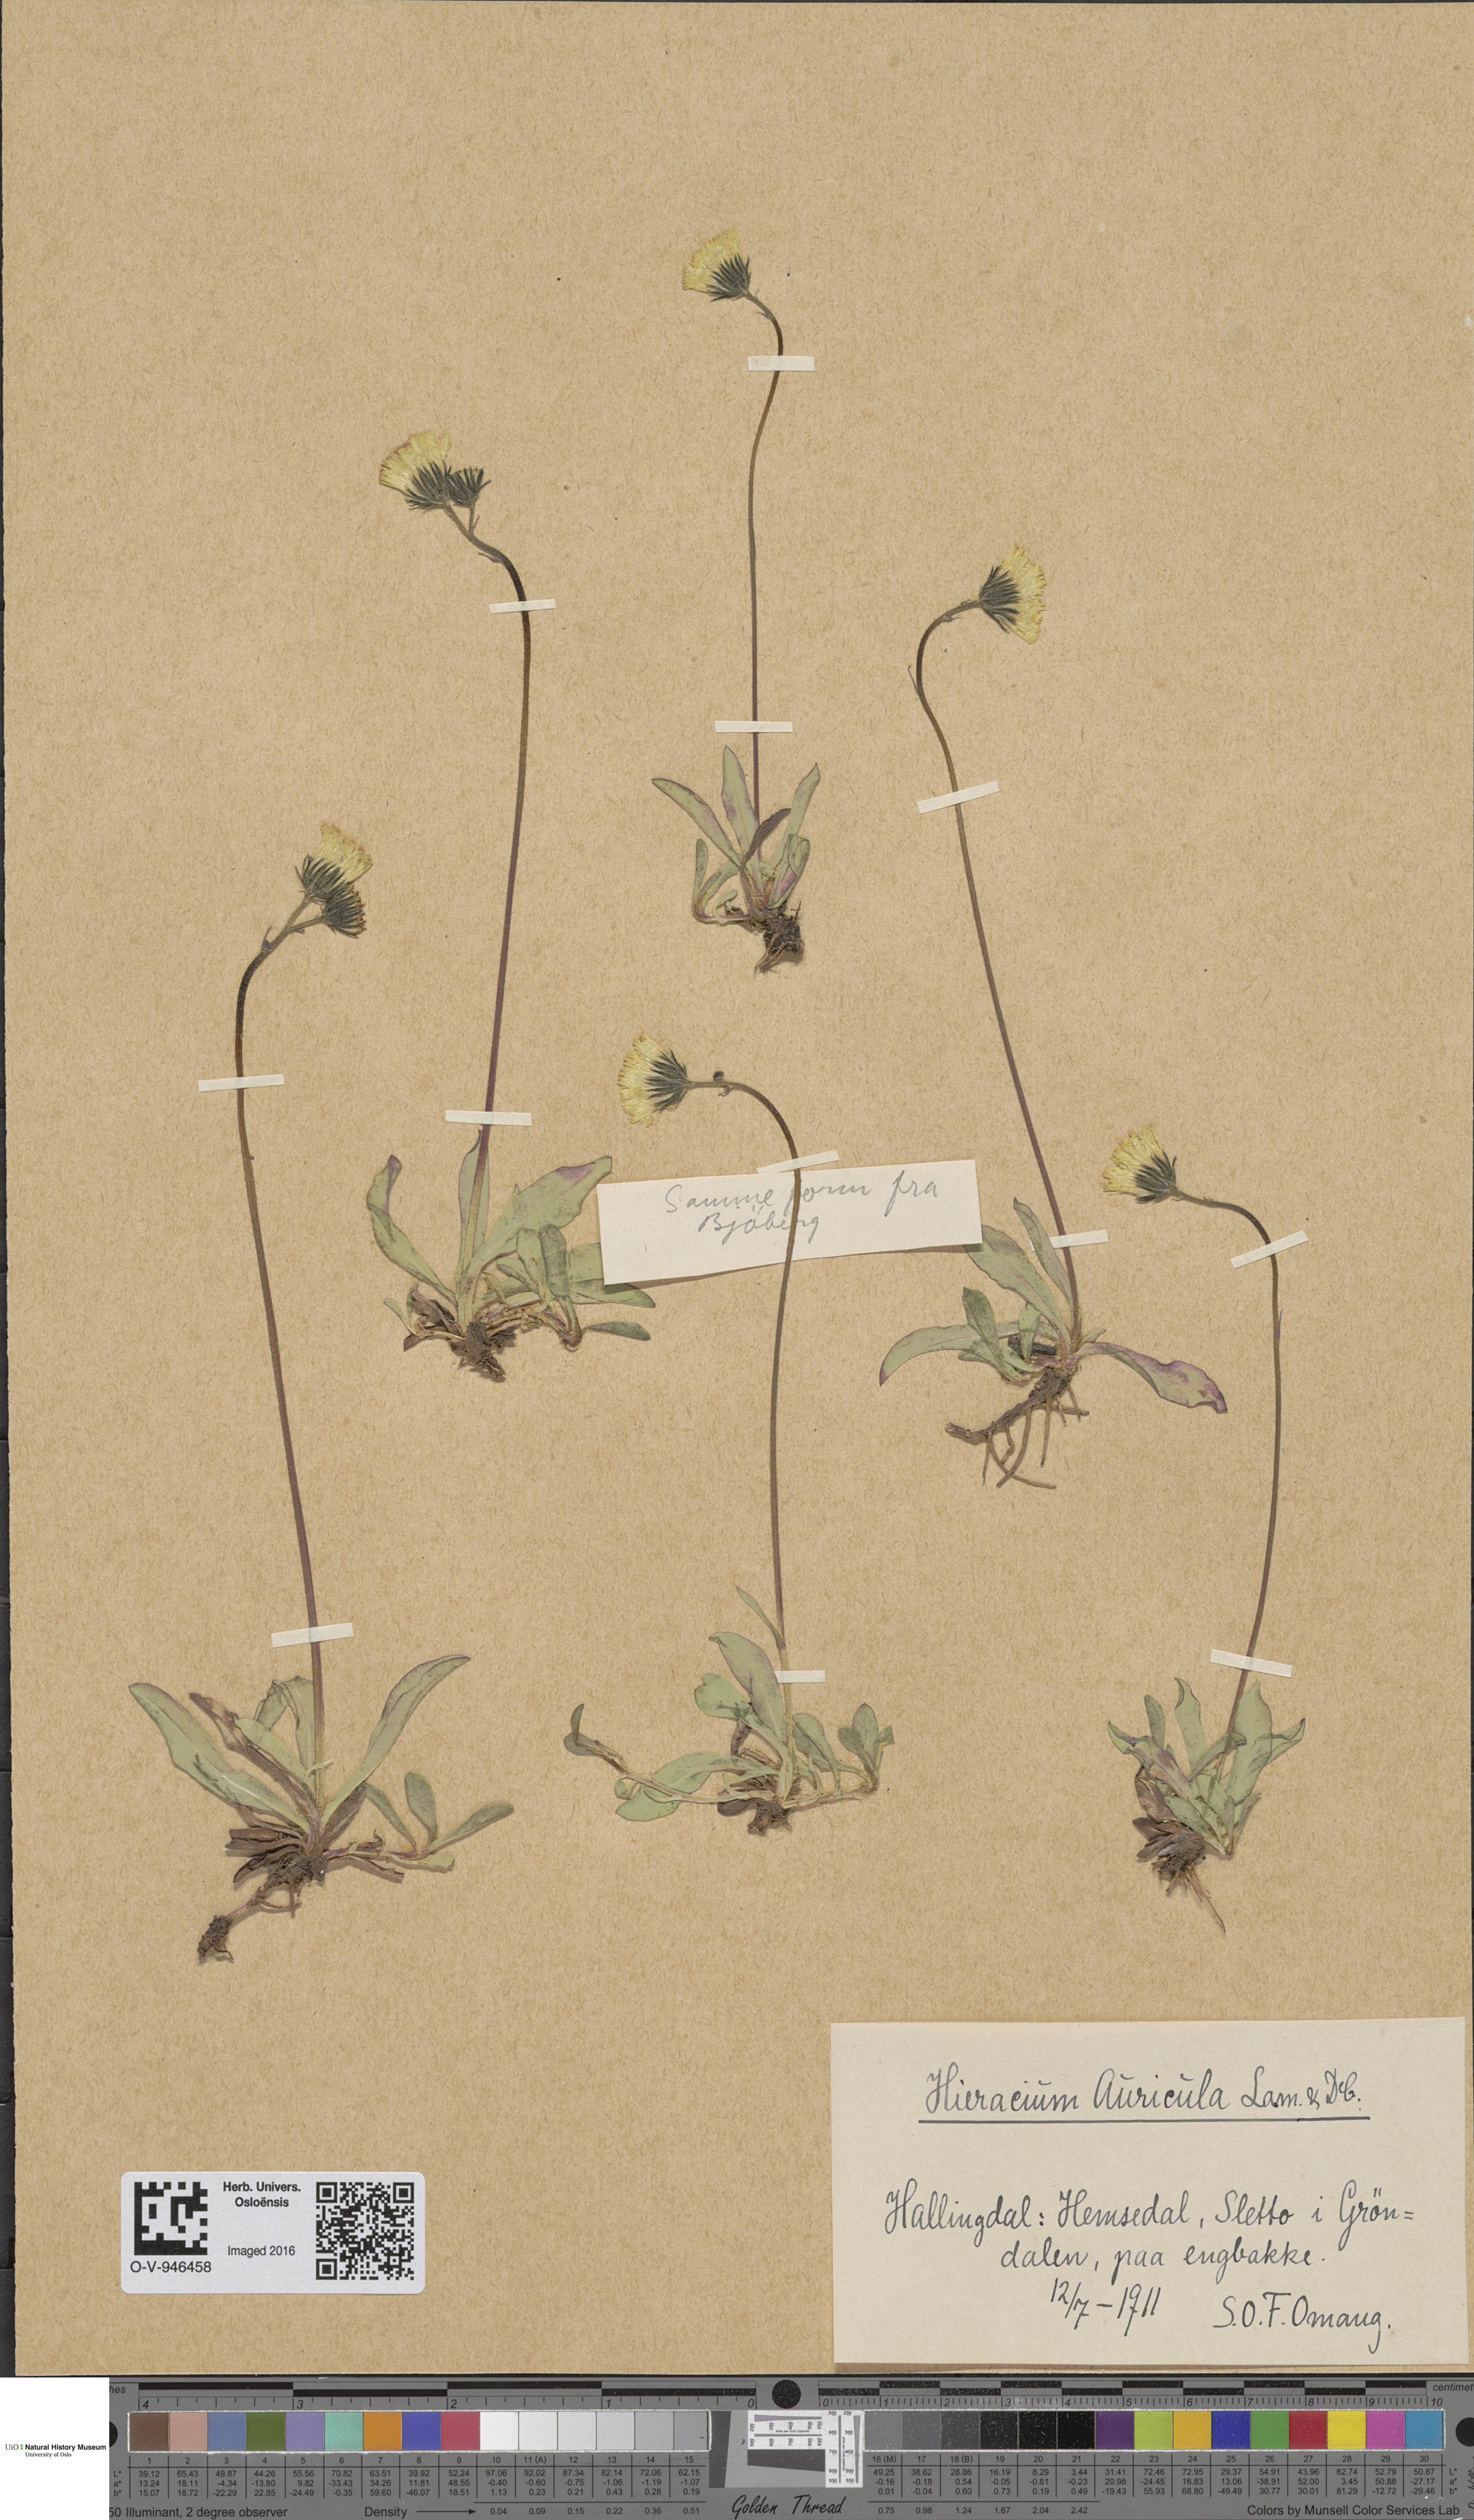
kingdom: Plantae
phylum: Tracheophyta
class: Magnoliopsida
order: Asterales
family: Asteraceae
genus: Pilosella
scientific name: Pilosella lactucella
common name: Glaucous fox-and-cubs
